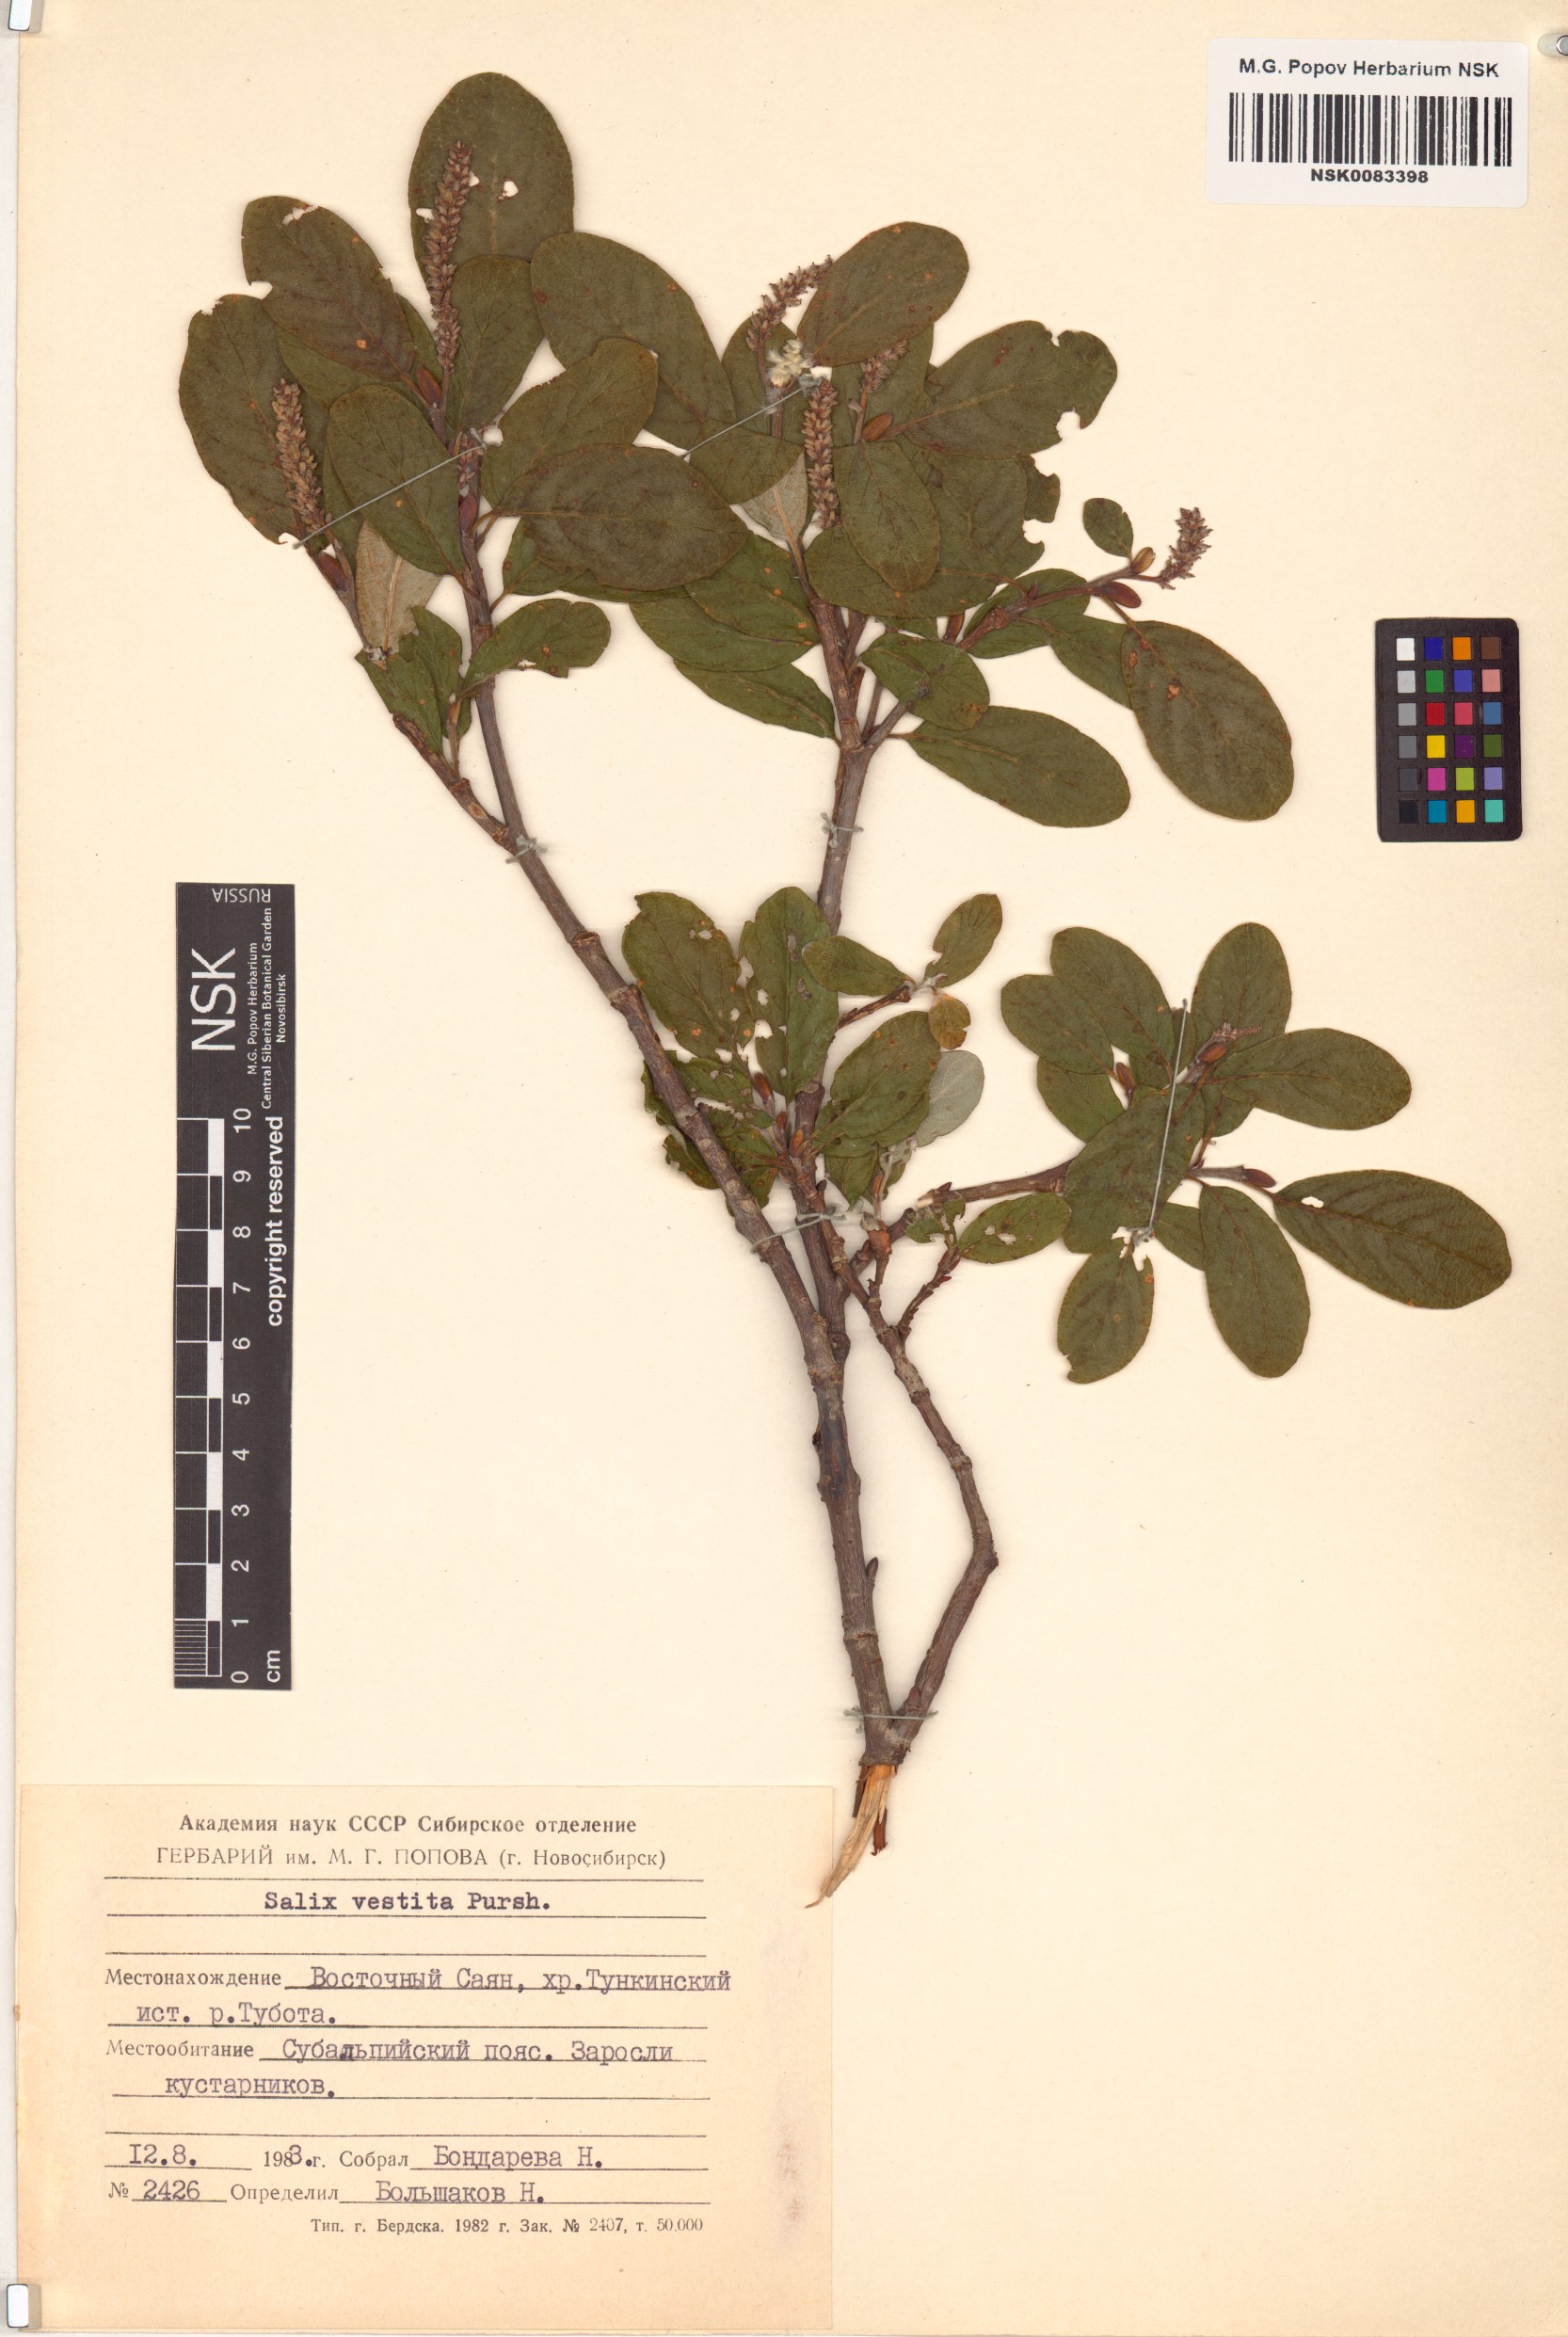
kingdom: Plantae
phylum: Tracheophyta
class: Magnoliopsida
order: Malpighiales
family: Salicaceae
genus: Salix
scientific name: Salix vestita
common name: Hairy willow
